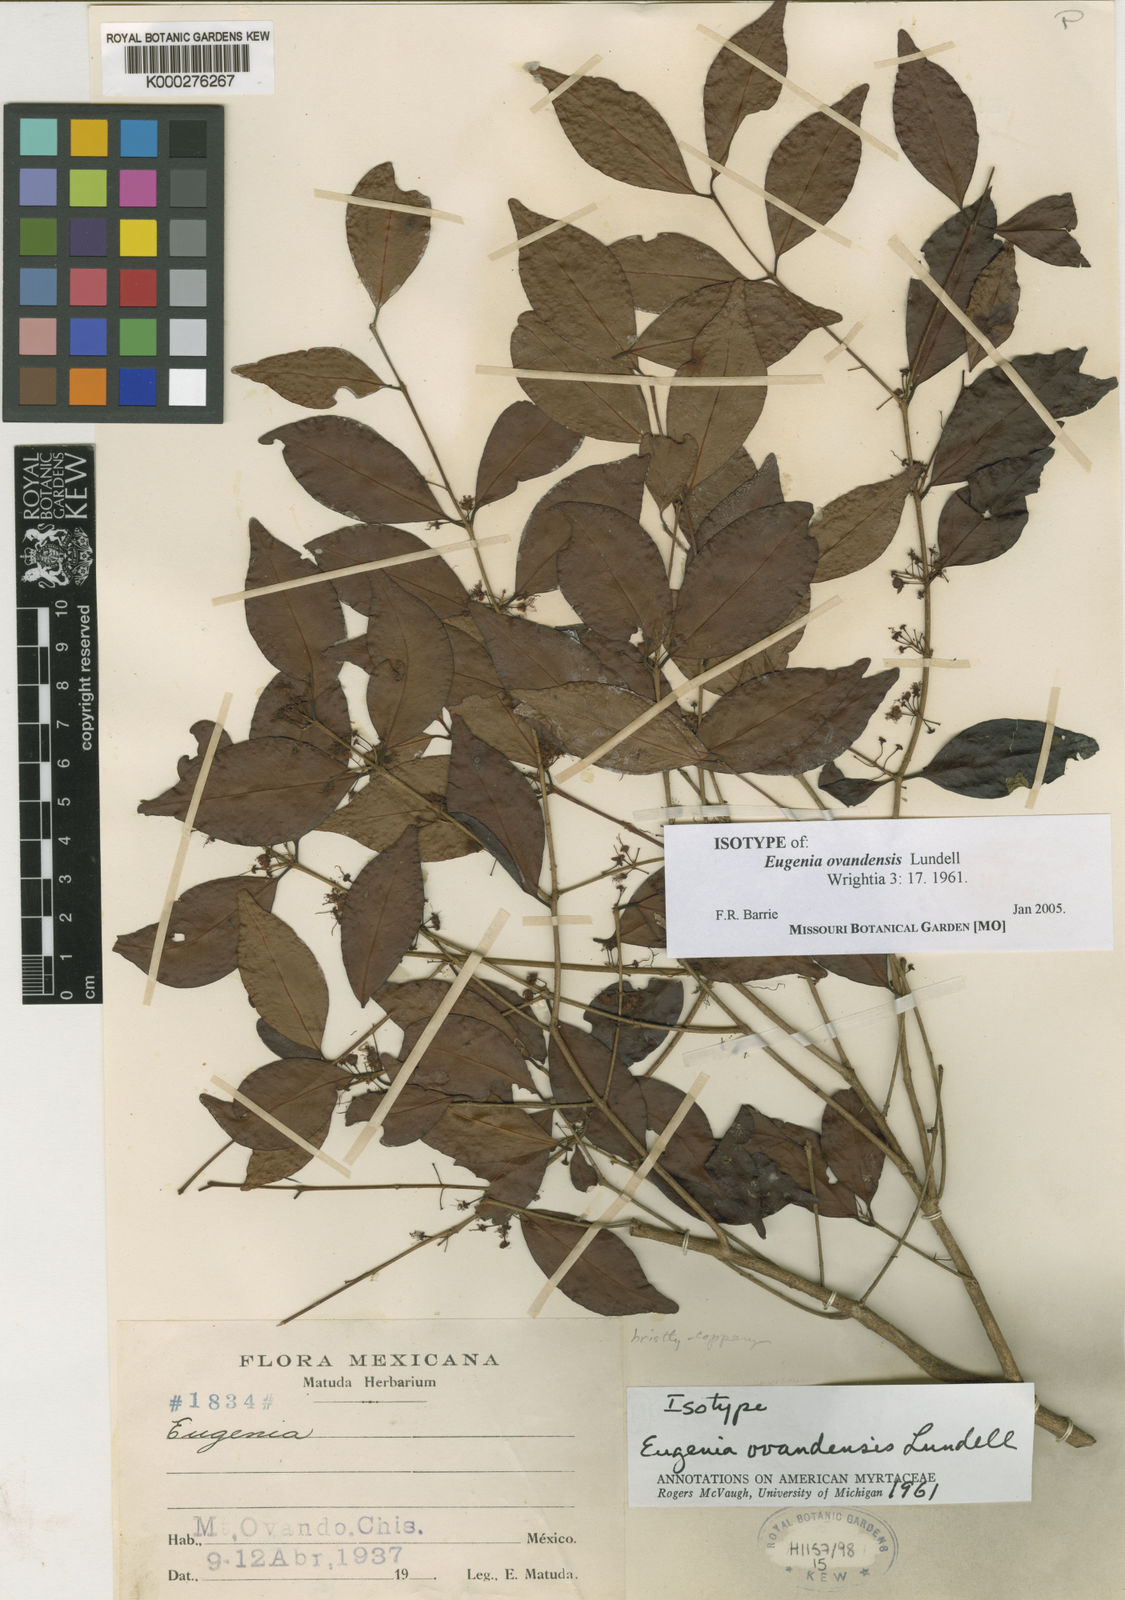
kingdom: Plantae
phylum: Tracheophyta
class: Magnoliopsida
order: Myrtales
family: Myrtaceae
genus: Eugenia
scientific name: Eugenia ovandensis
